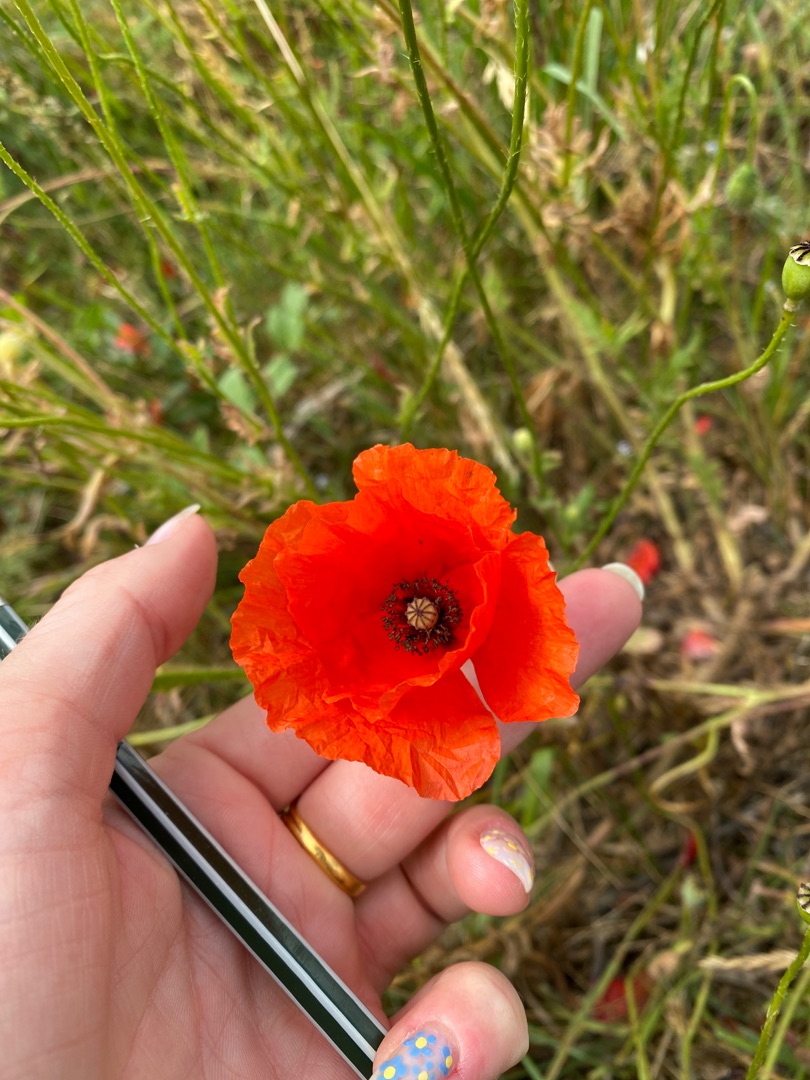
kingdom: Plantae
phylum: Tracheophyta
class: Magnoliopsida
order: Ranunculales
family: Papaveraceae
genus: Papaver
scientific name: Papaver rhoeas
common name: Korn-valmue
